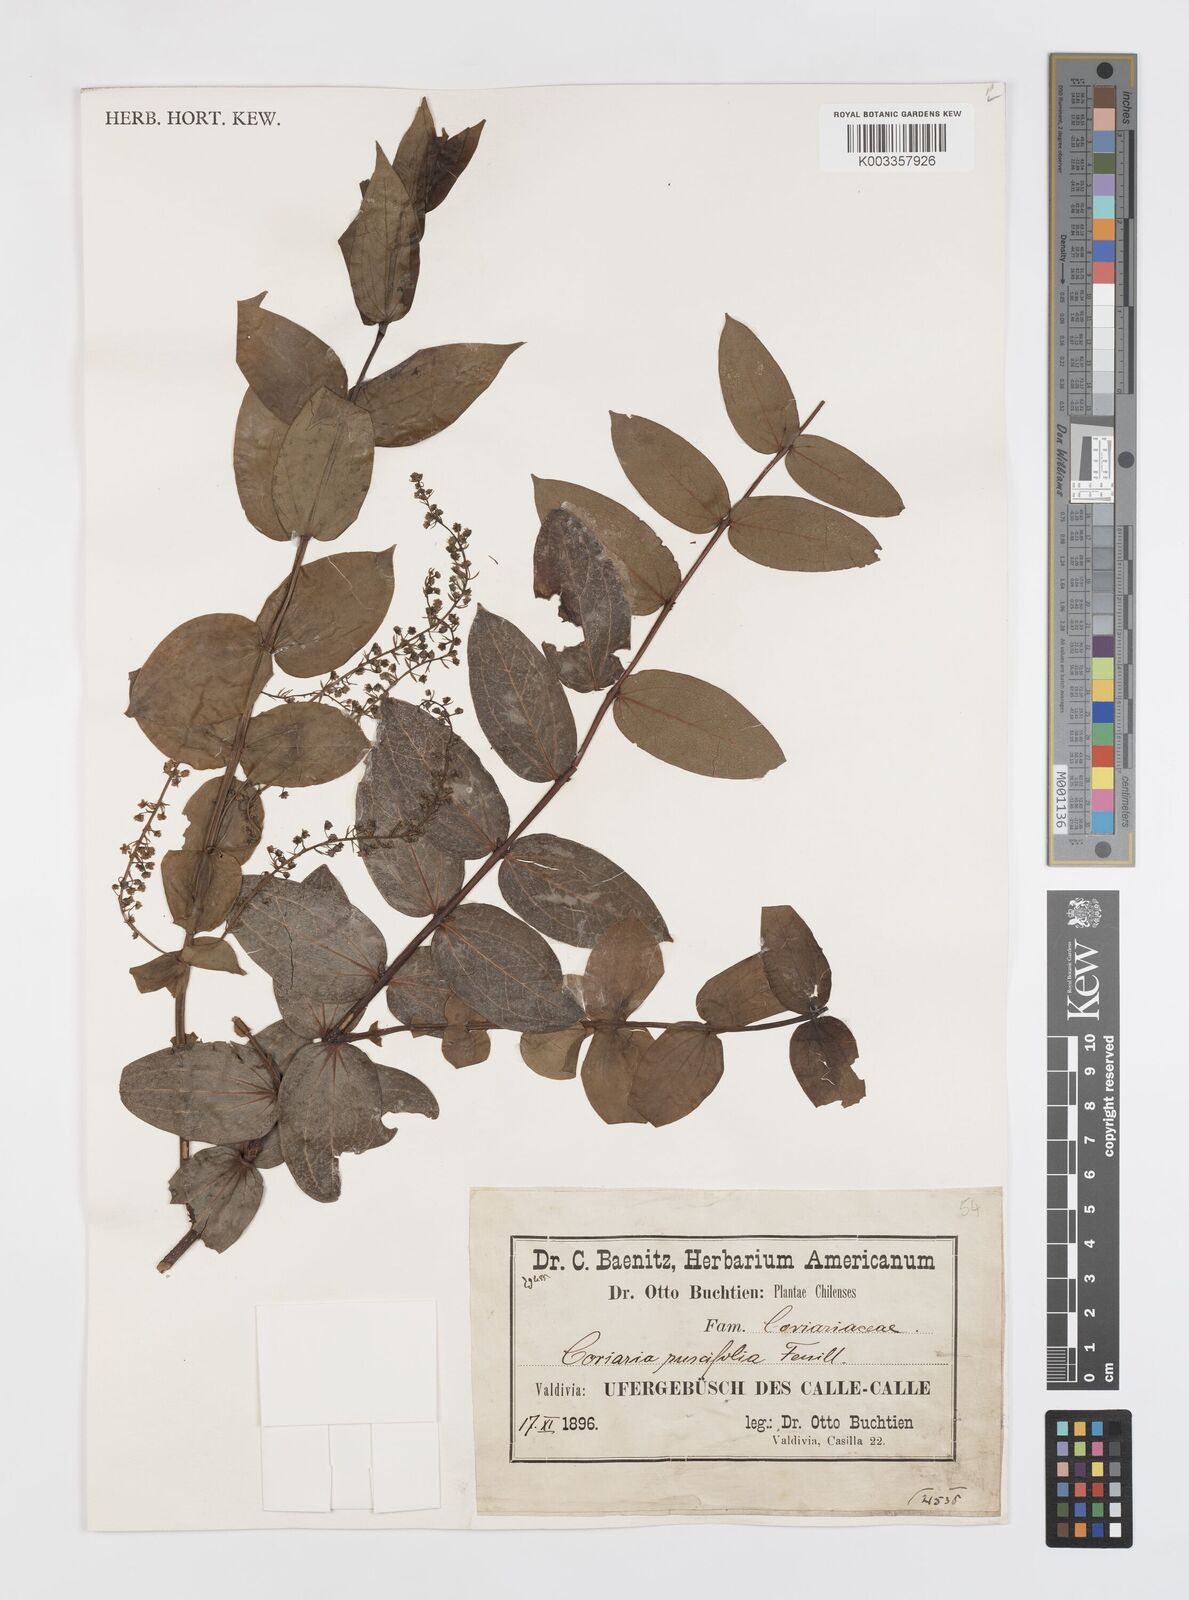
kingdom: Plantae
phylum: Tracheophyta
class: Magnoliopsida
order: Cucurbitales
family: Coriariaceae
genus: Coriaria
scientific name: Coriaria ruscifolia
